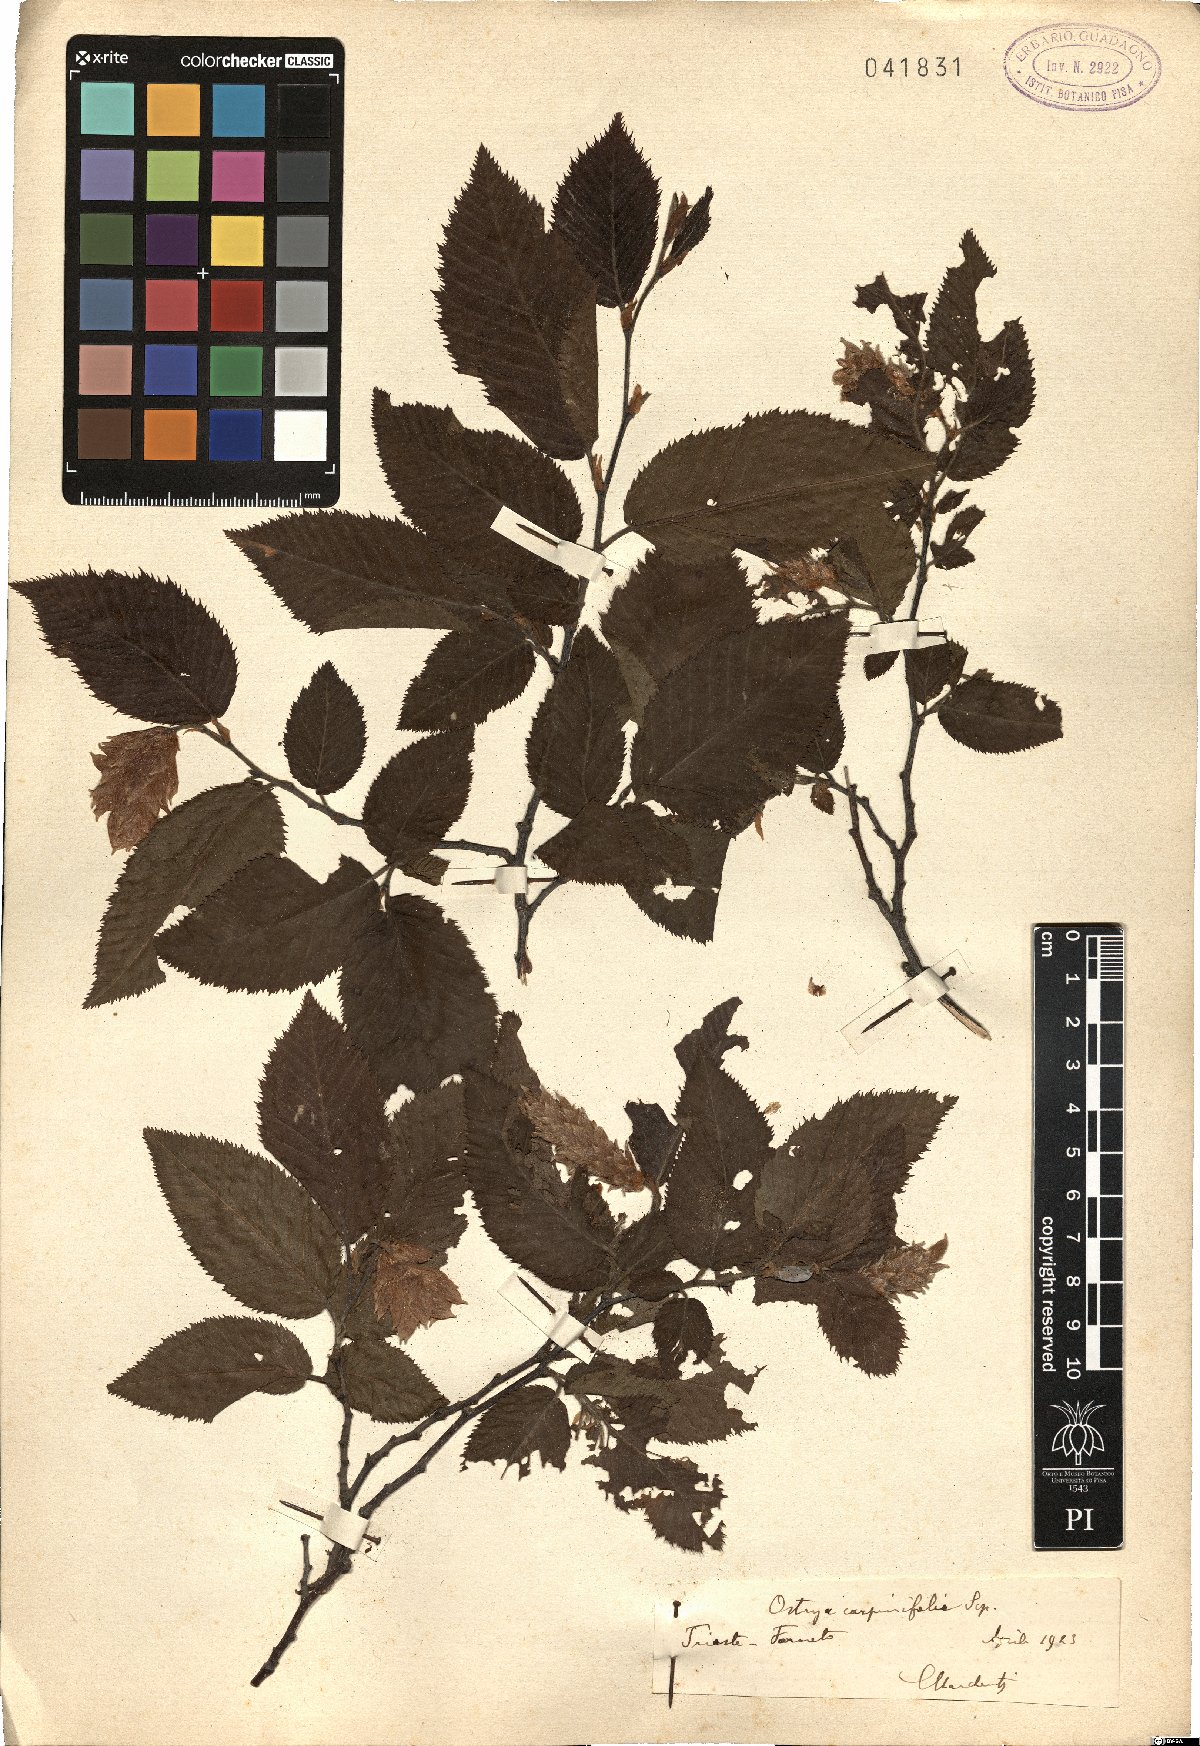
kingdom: Plantae
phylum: Tracheophyta
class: Magnoliopsida
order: Fagales
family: Betulaceae
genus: Ostrya
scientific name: Ostrya carpinifolia
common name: European hop-hornbeam
